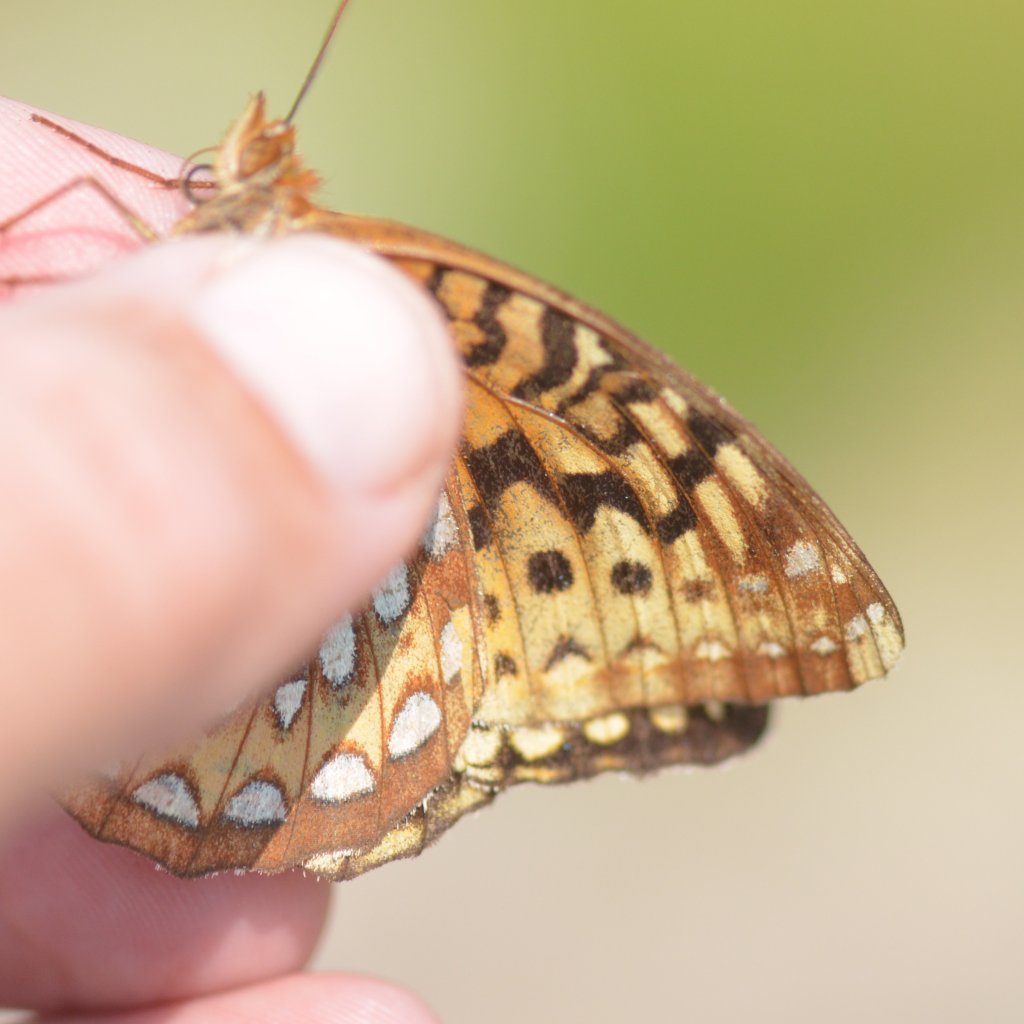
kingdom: Animalia
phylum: Arthropoda
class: Insecta
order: Lepidoptera
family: Nymphalidae
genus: Speyeria
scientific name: Speyeria cybele
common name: Great Spangled Fritillary
